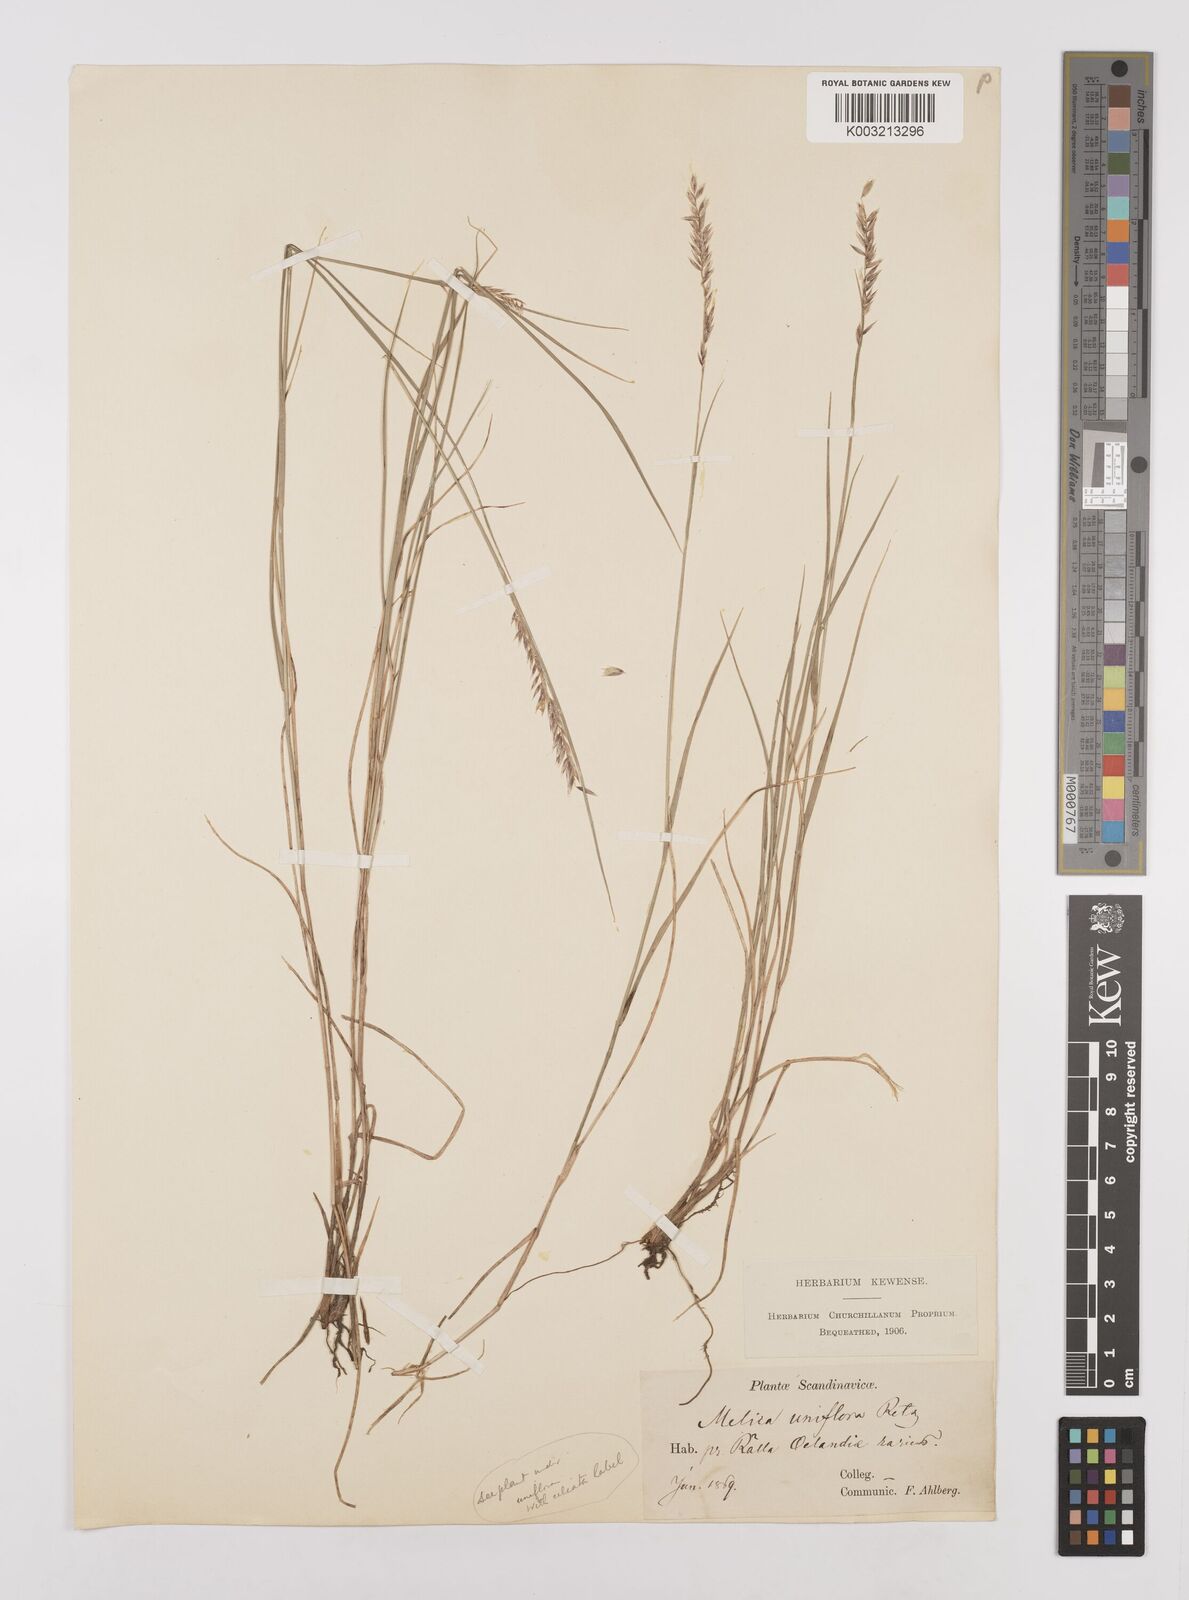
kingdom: Plantae
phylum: Tracheophyta
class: Liliopsida
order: Poales
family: Poaceae
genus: Melica
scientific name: Melica
